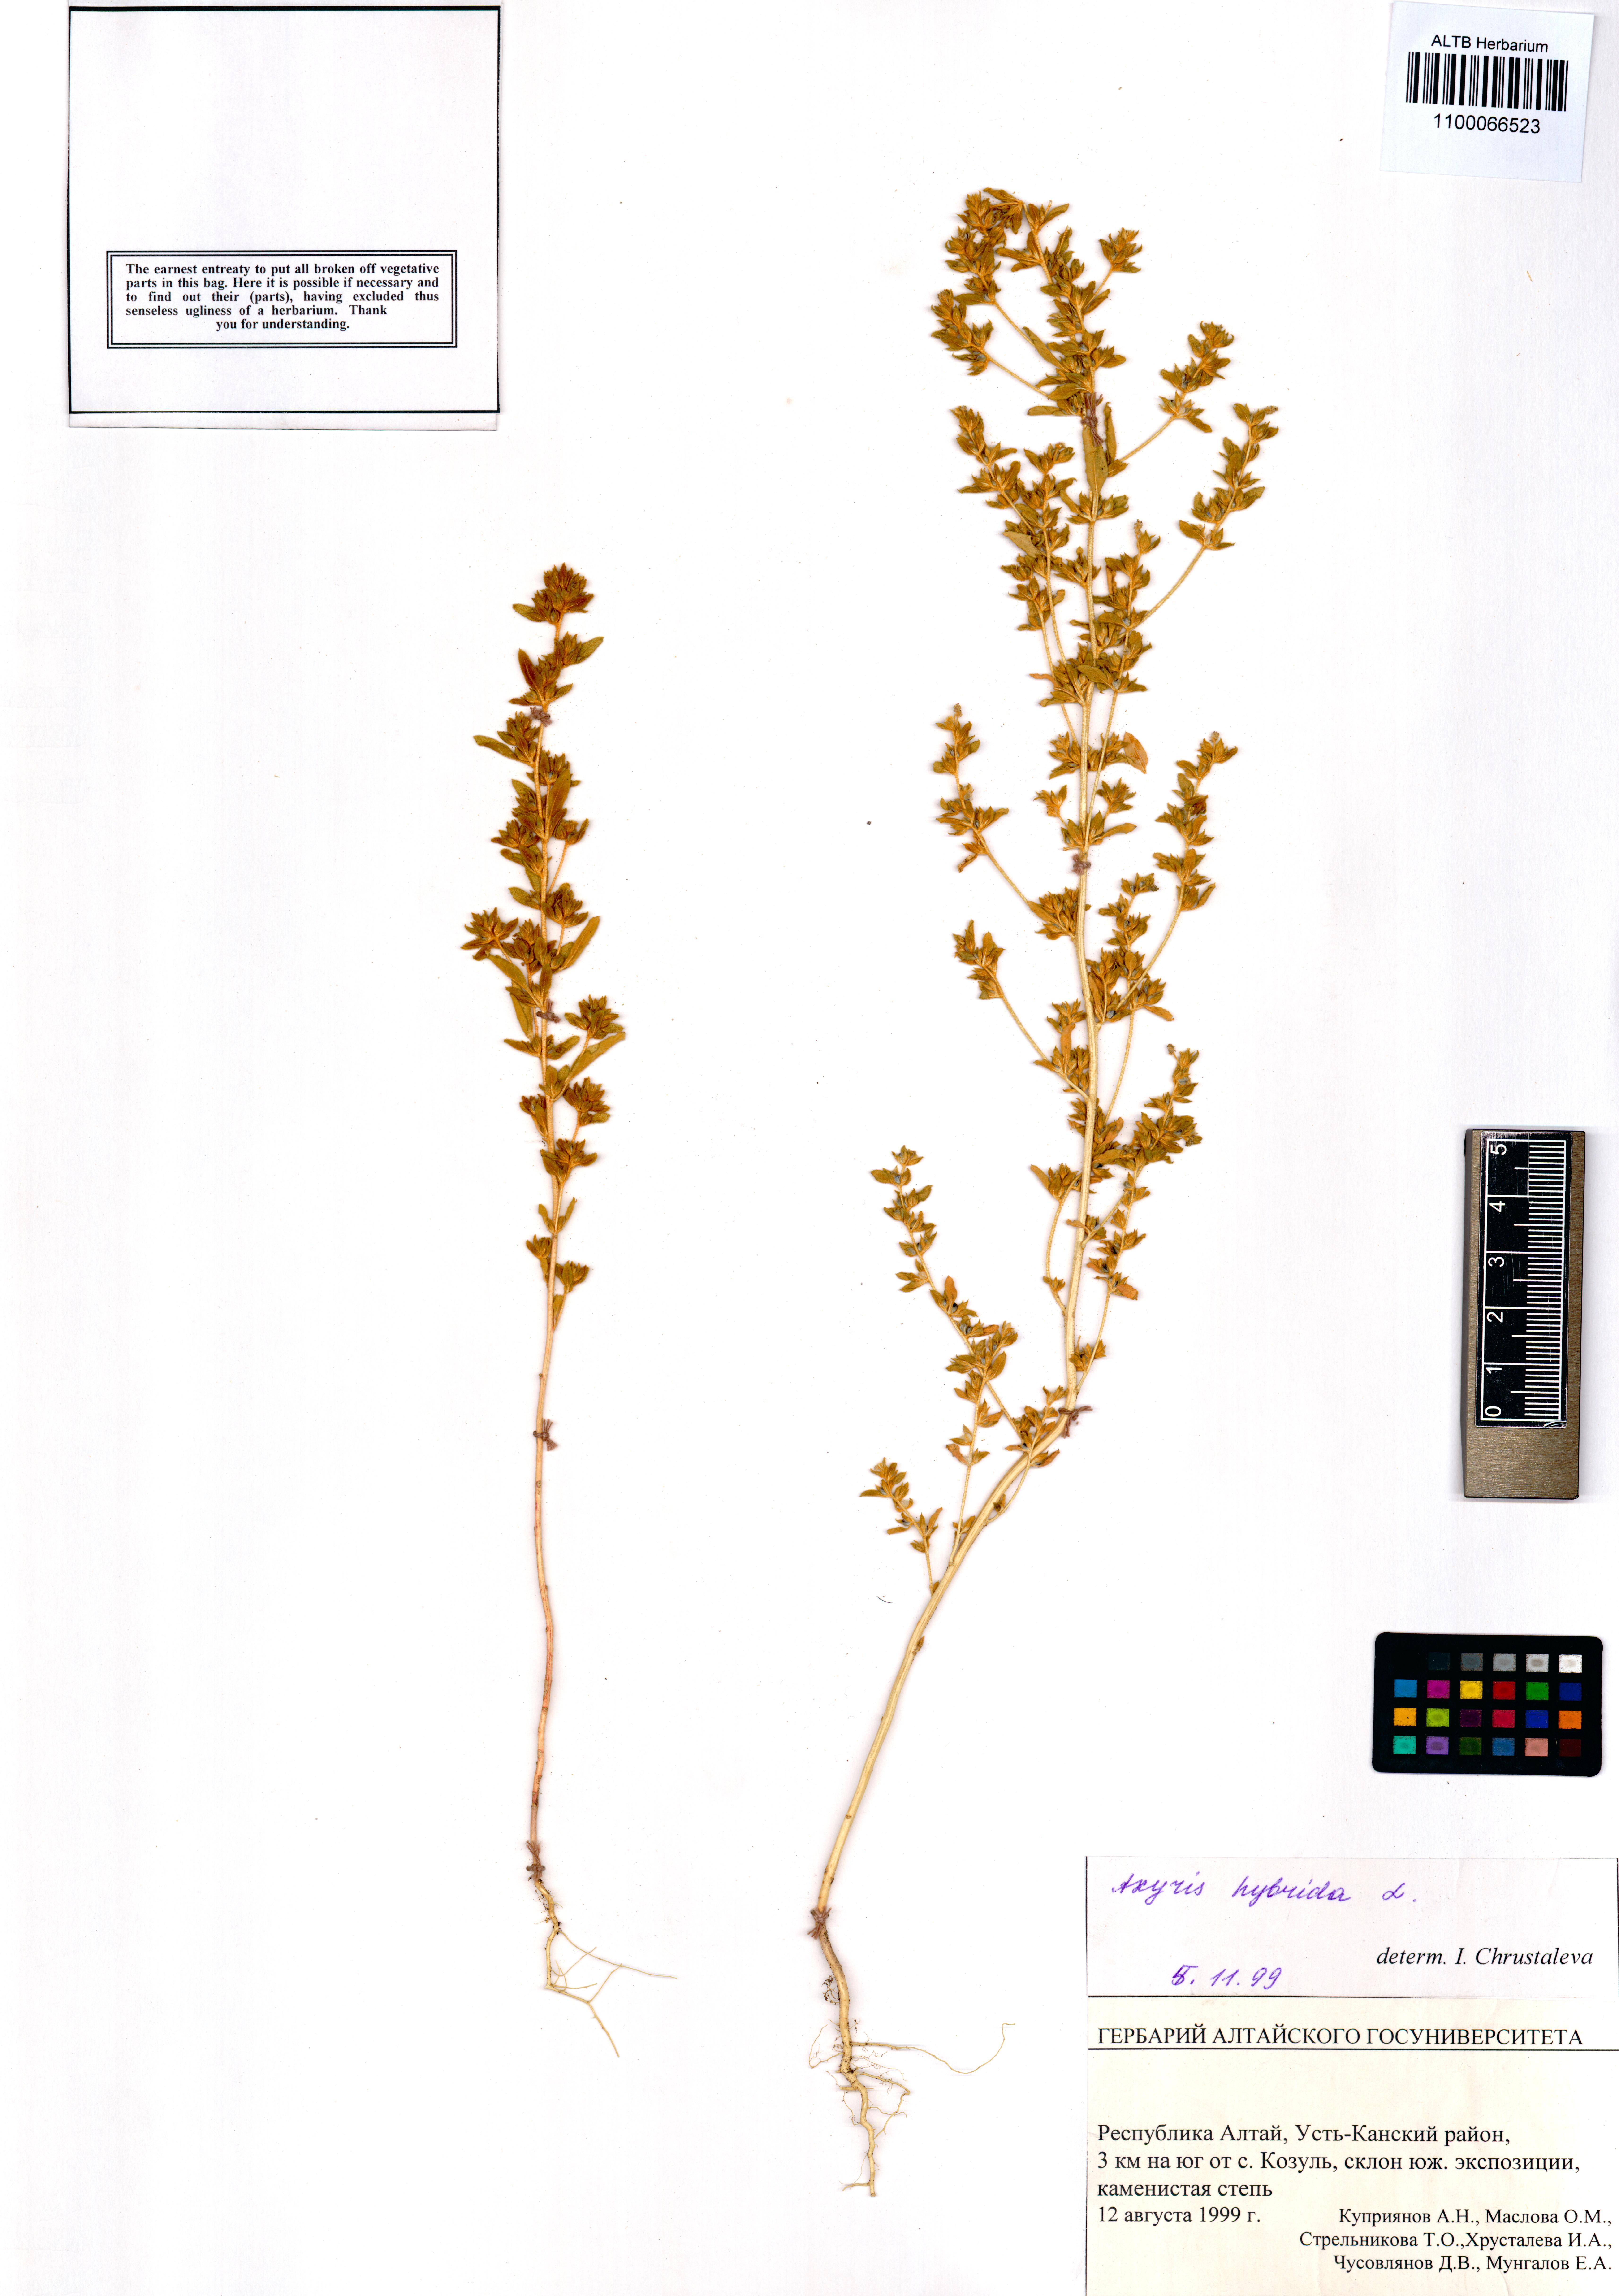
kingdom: Plantae
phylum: Tracheophyta
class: Magnoliopsida
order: Caryophyllales
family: Amaranthaceae
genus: Axyris
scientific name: Axyris hybrida
